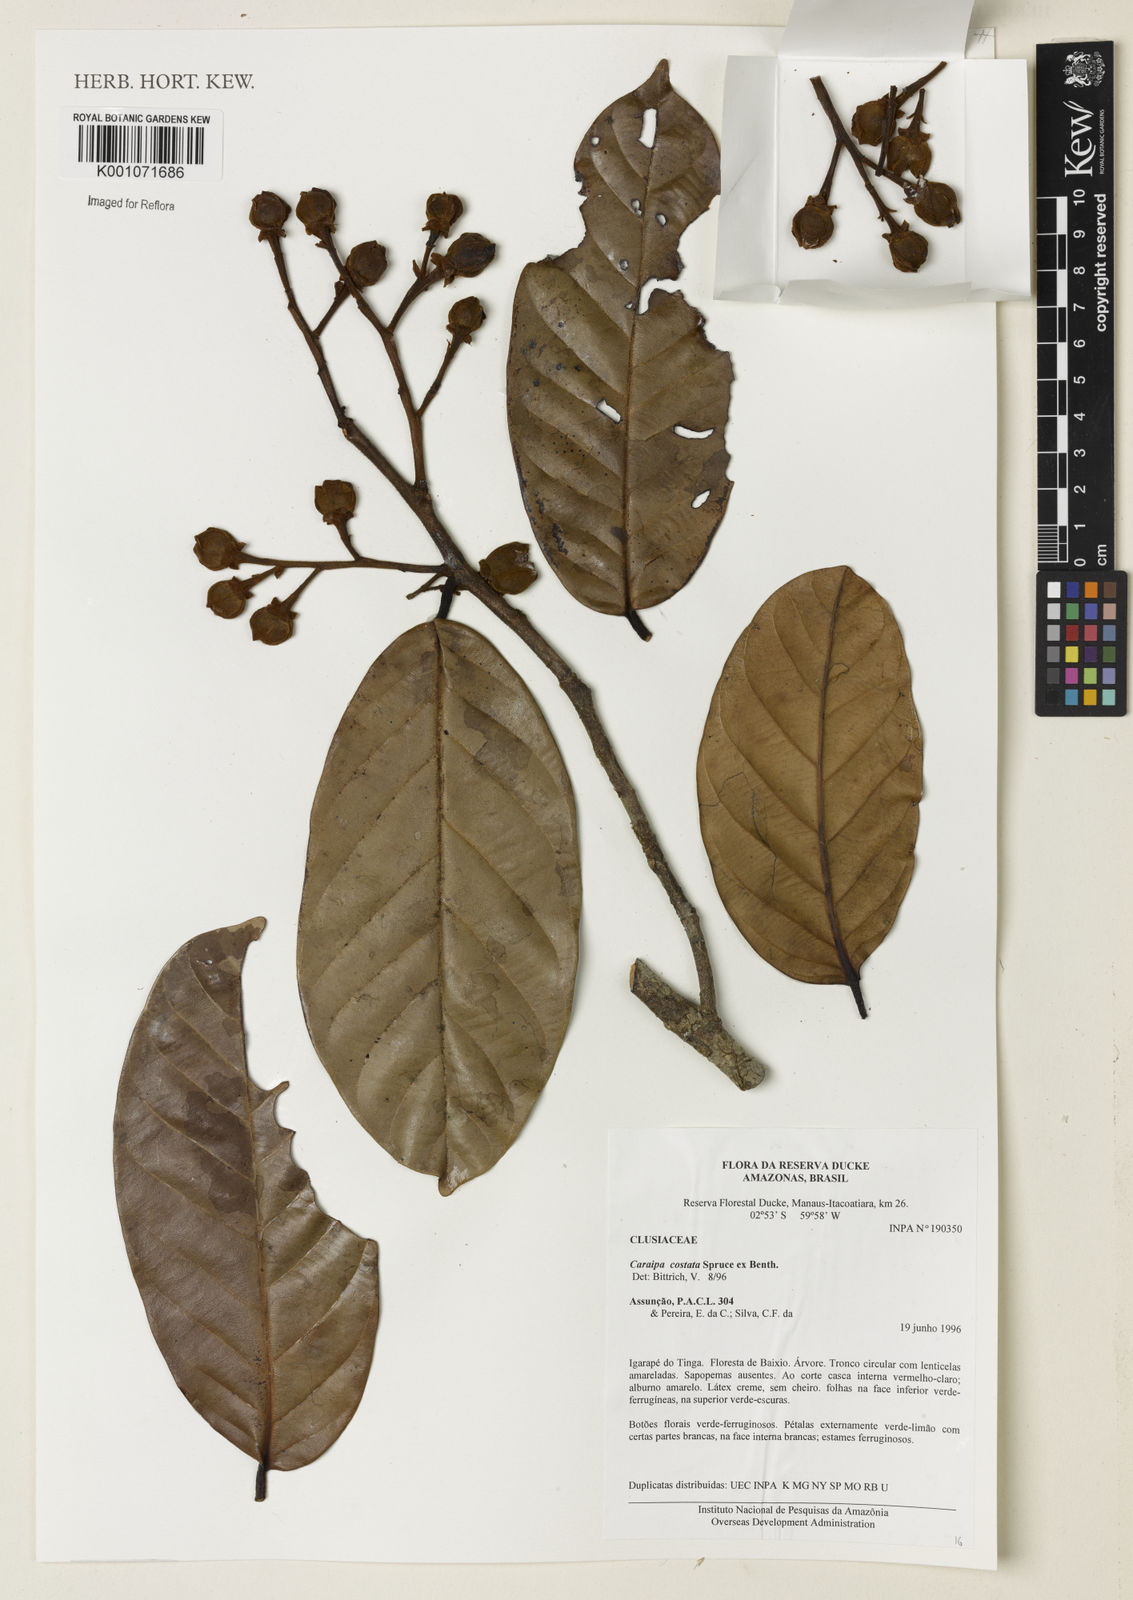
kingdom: Plantae
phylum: Tracheophyta
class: Magnoliopsida
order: Malpighiales
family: Calophyllaceae
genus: Caraipa
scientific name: Caraipa costata
